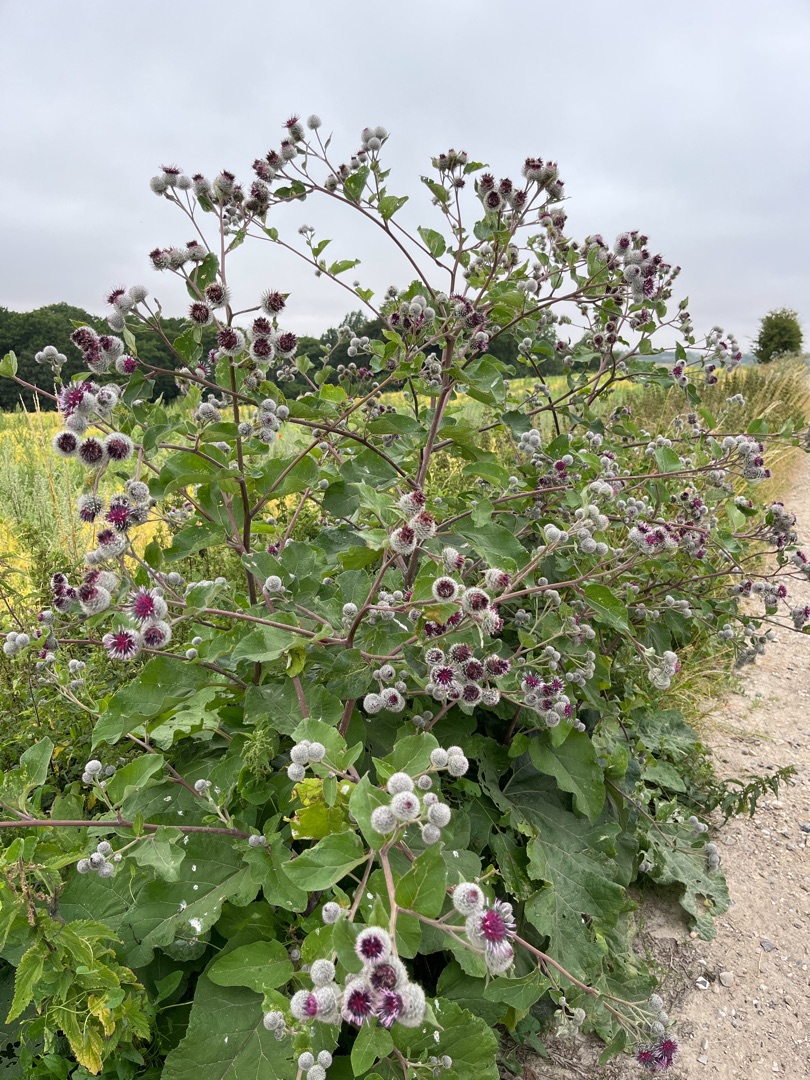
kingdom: Plantae
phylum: Tracheophyta
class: Magnoliopsida
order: Asterales
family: Asteraceae
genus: Arctium
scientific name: Arctium tomentosum
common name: Filtet burre
